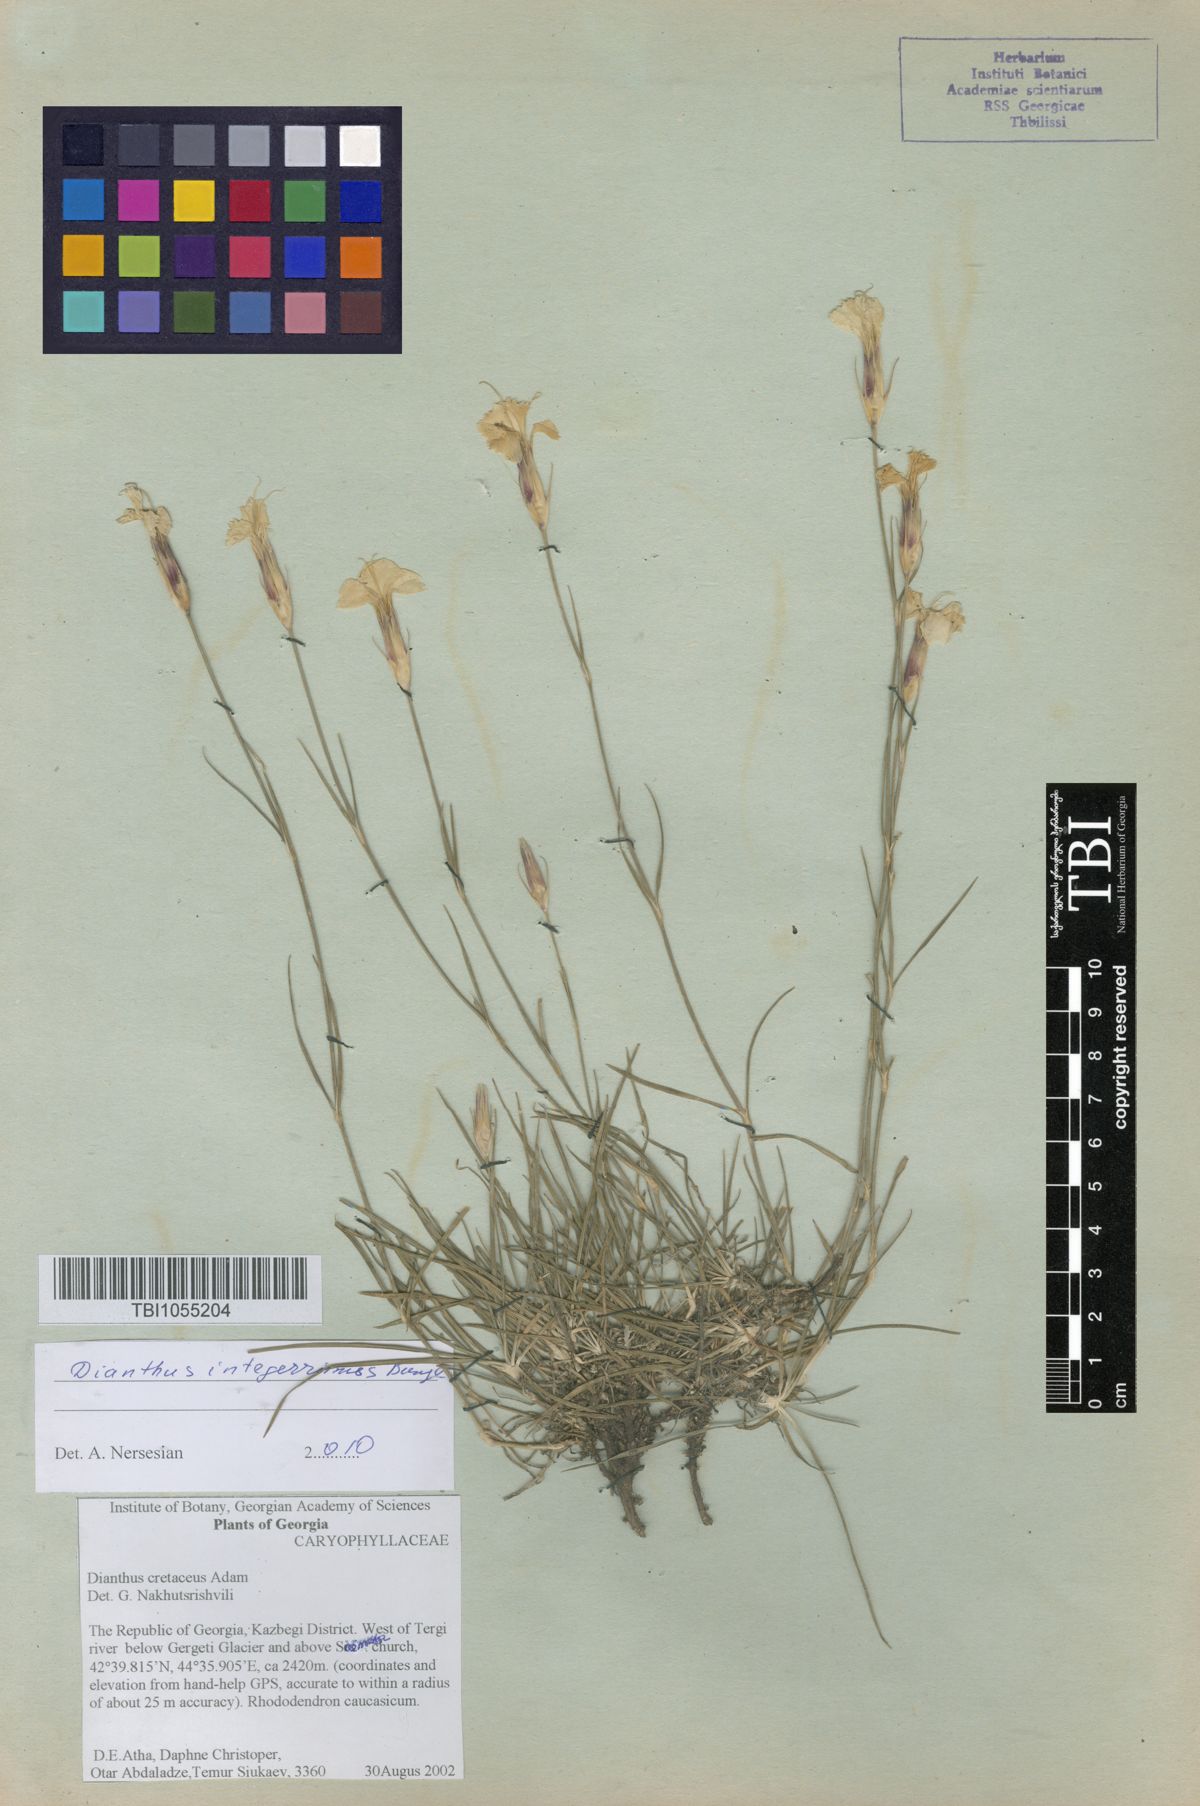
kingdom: Plantae
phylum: Tracheophyta
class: Magnoliopsida
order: Caryophyllales
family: Caryophyllaceae
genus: Dianthus
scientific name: Dianthus cretaceus
